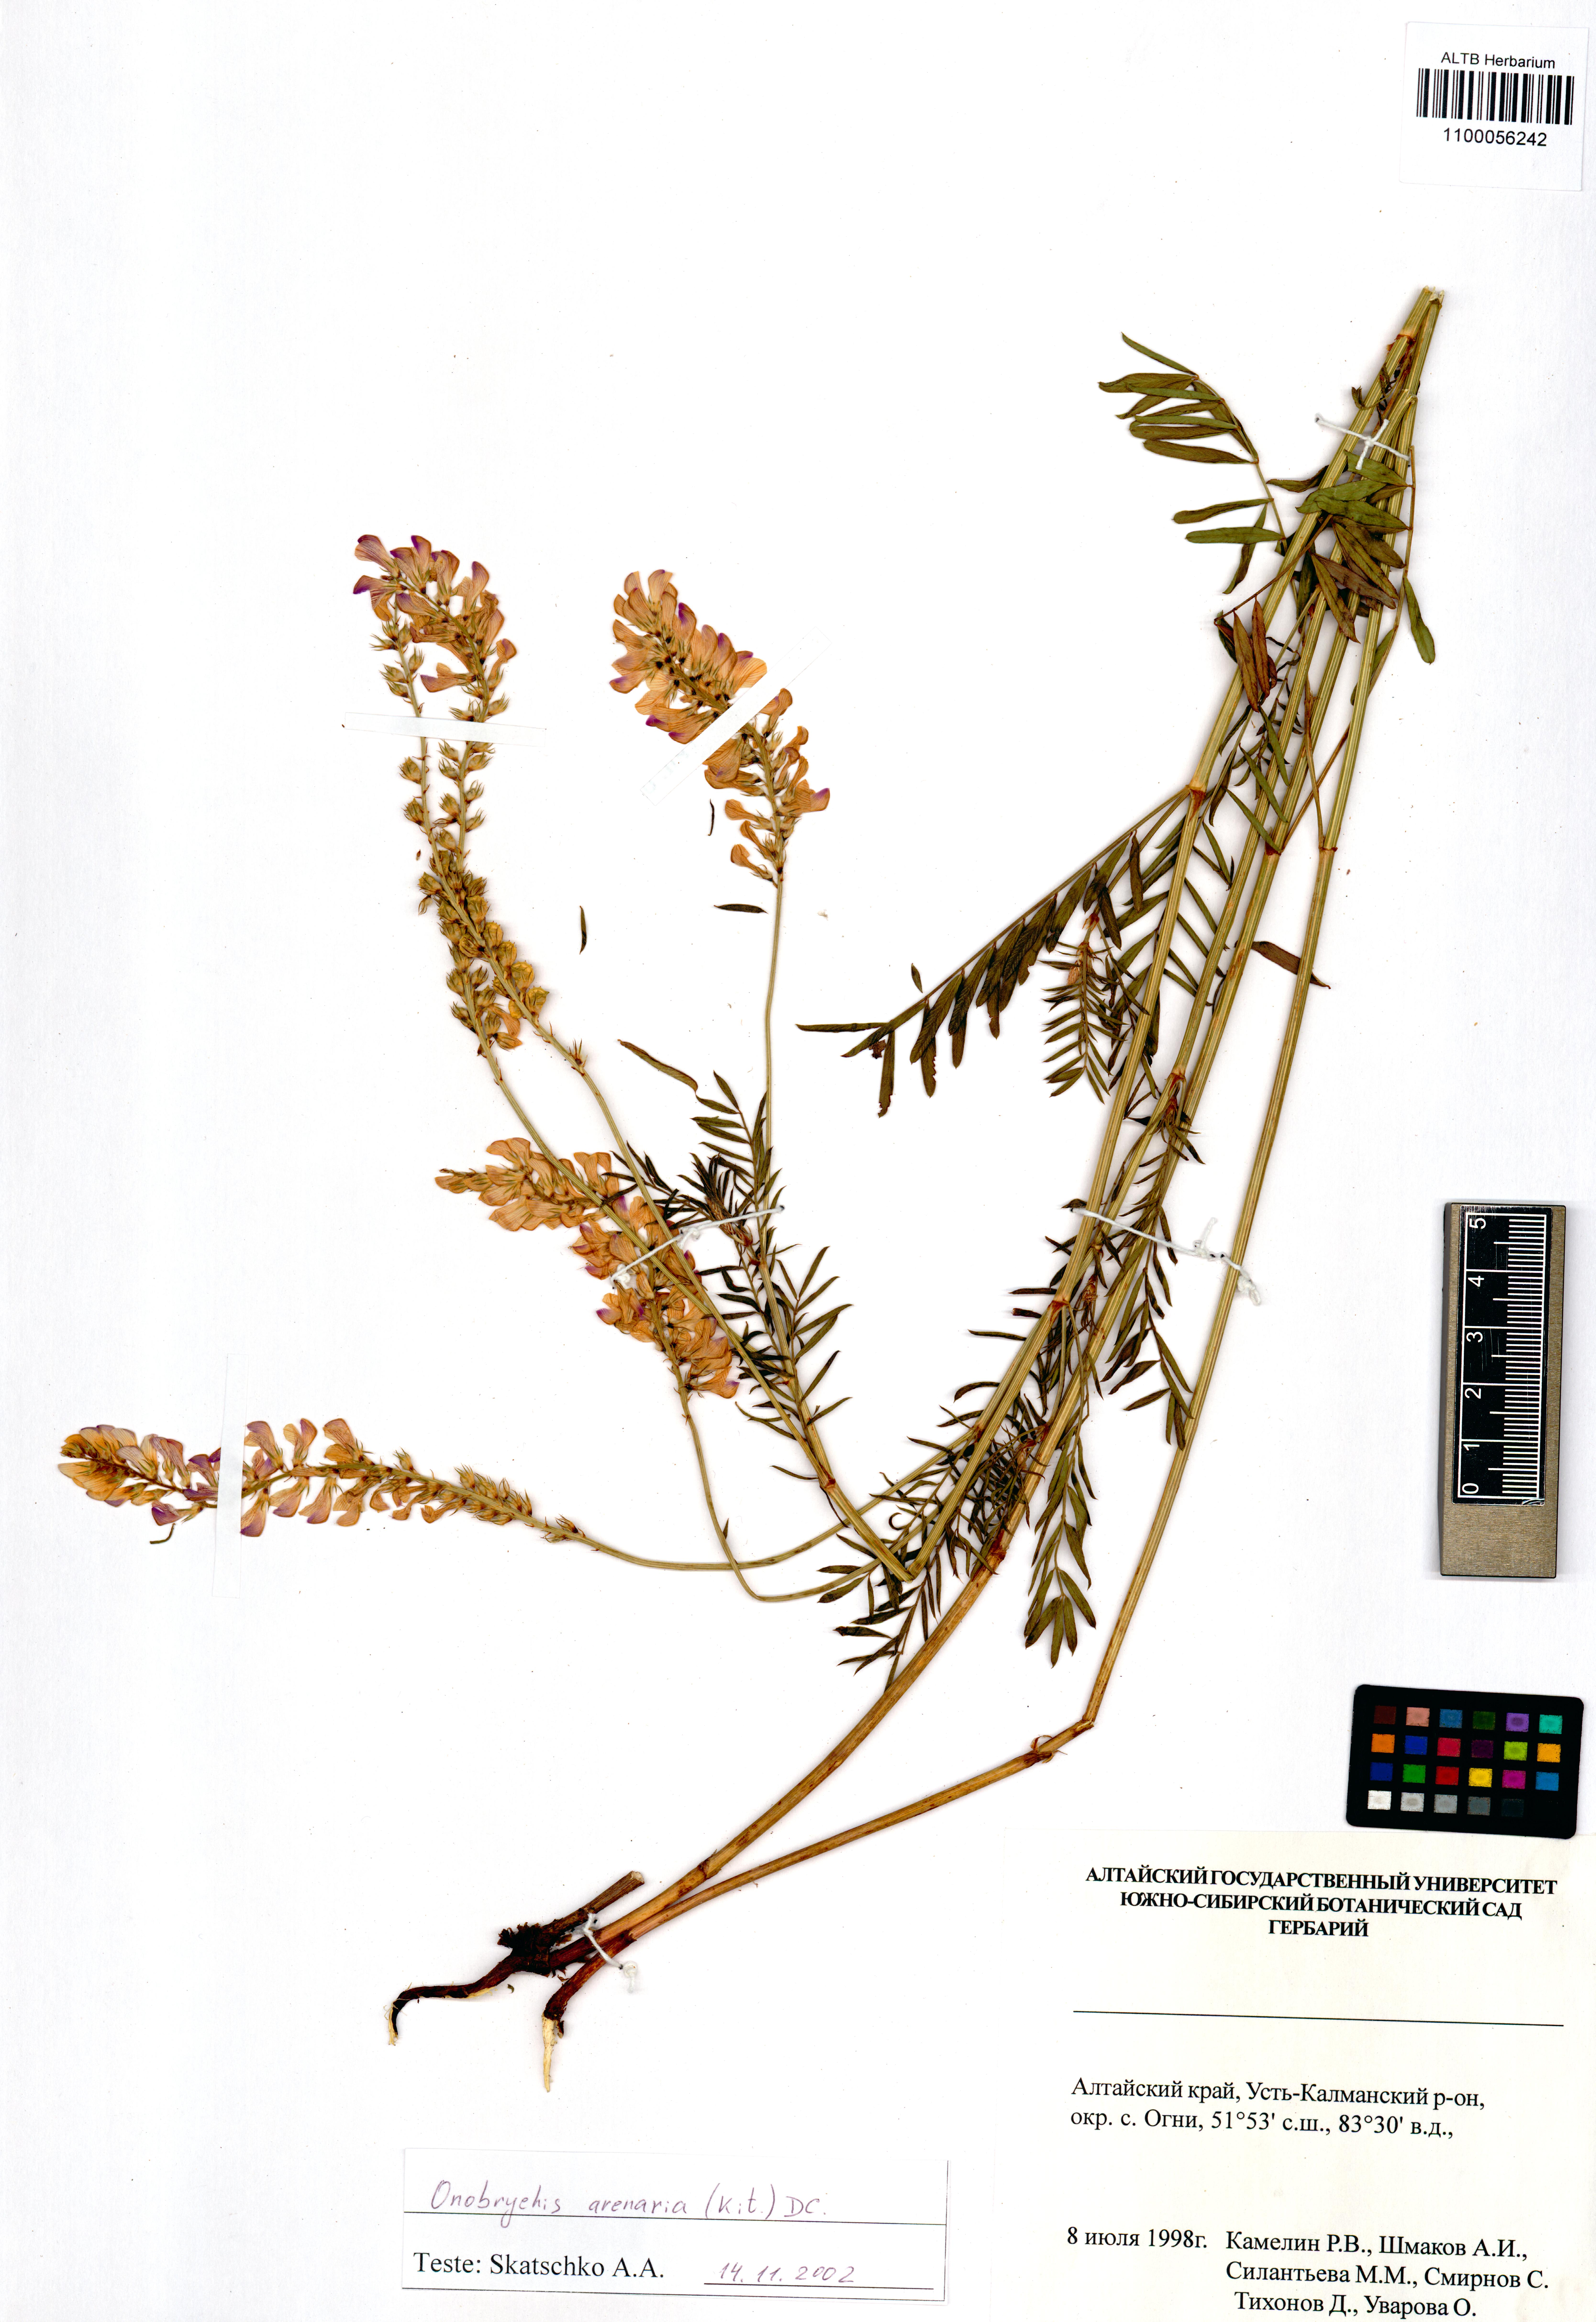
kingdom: Plantae
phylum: Tracheophyta
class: Magnoliopsida
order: Fabales
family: Fabaceae
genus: Onobrychis
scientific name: Onobrychis arenaria
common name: Sand esparcet
